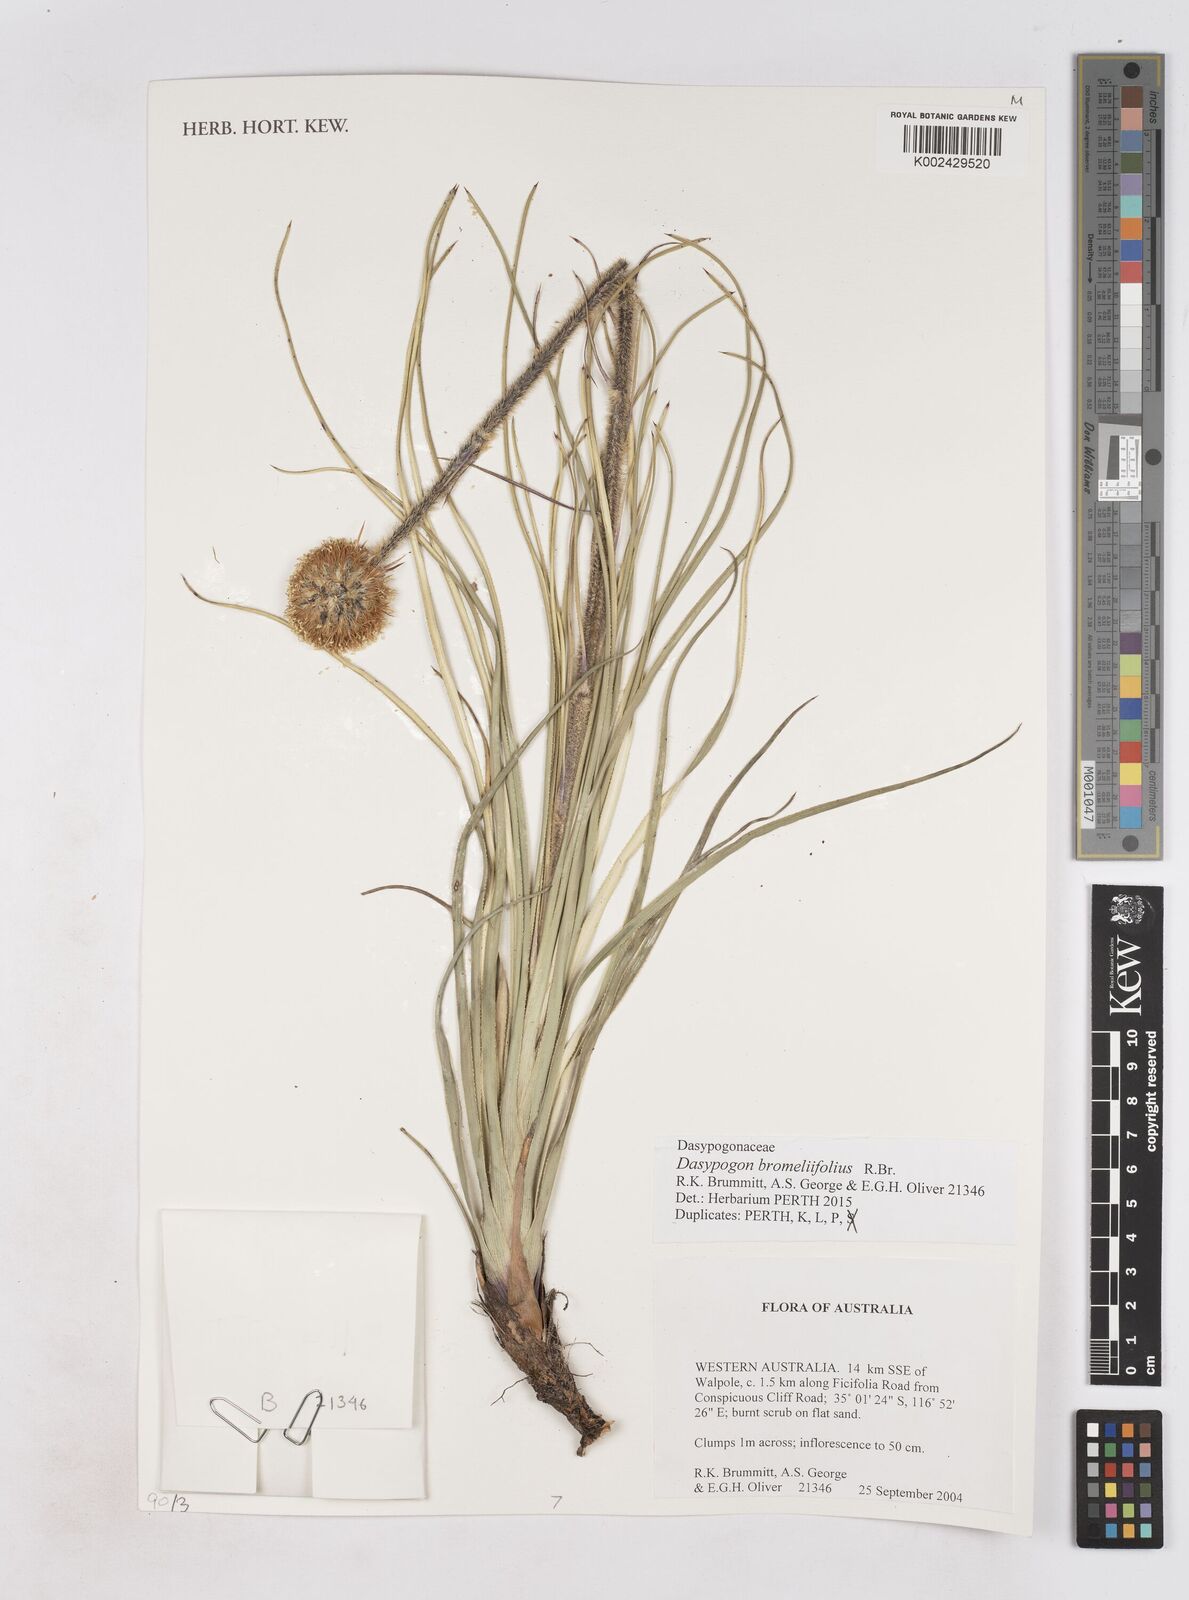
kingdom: Plantae
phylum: Tracheophyta
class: Liliopsida
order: Arecales
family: Dasypogonaceae
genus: Dasypogon
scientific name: Dasypogon bromeliifolius
